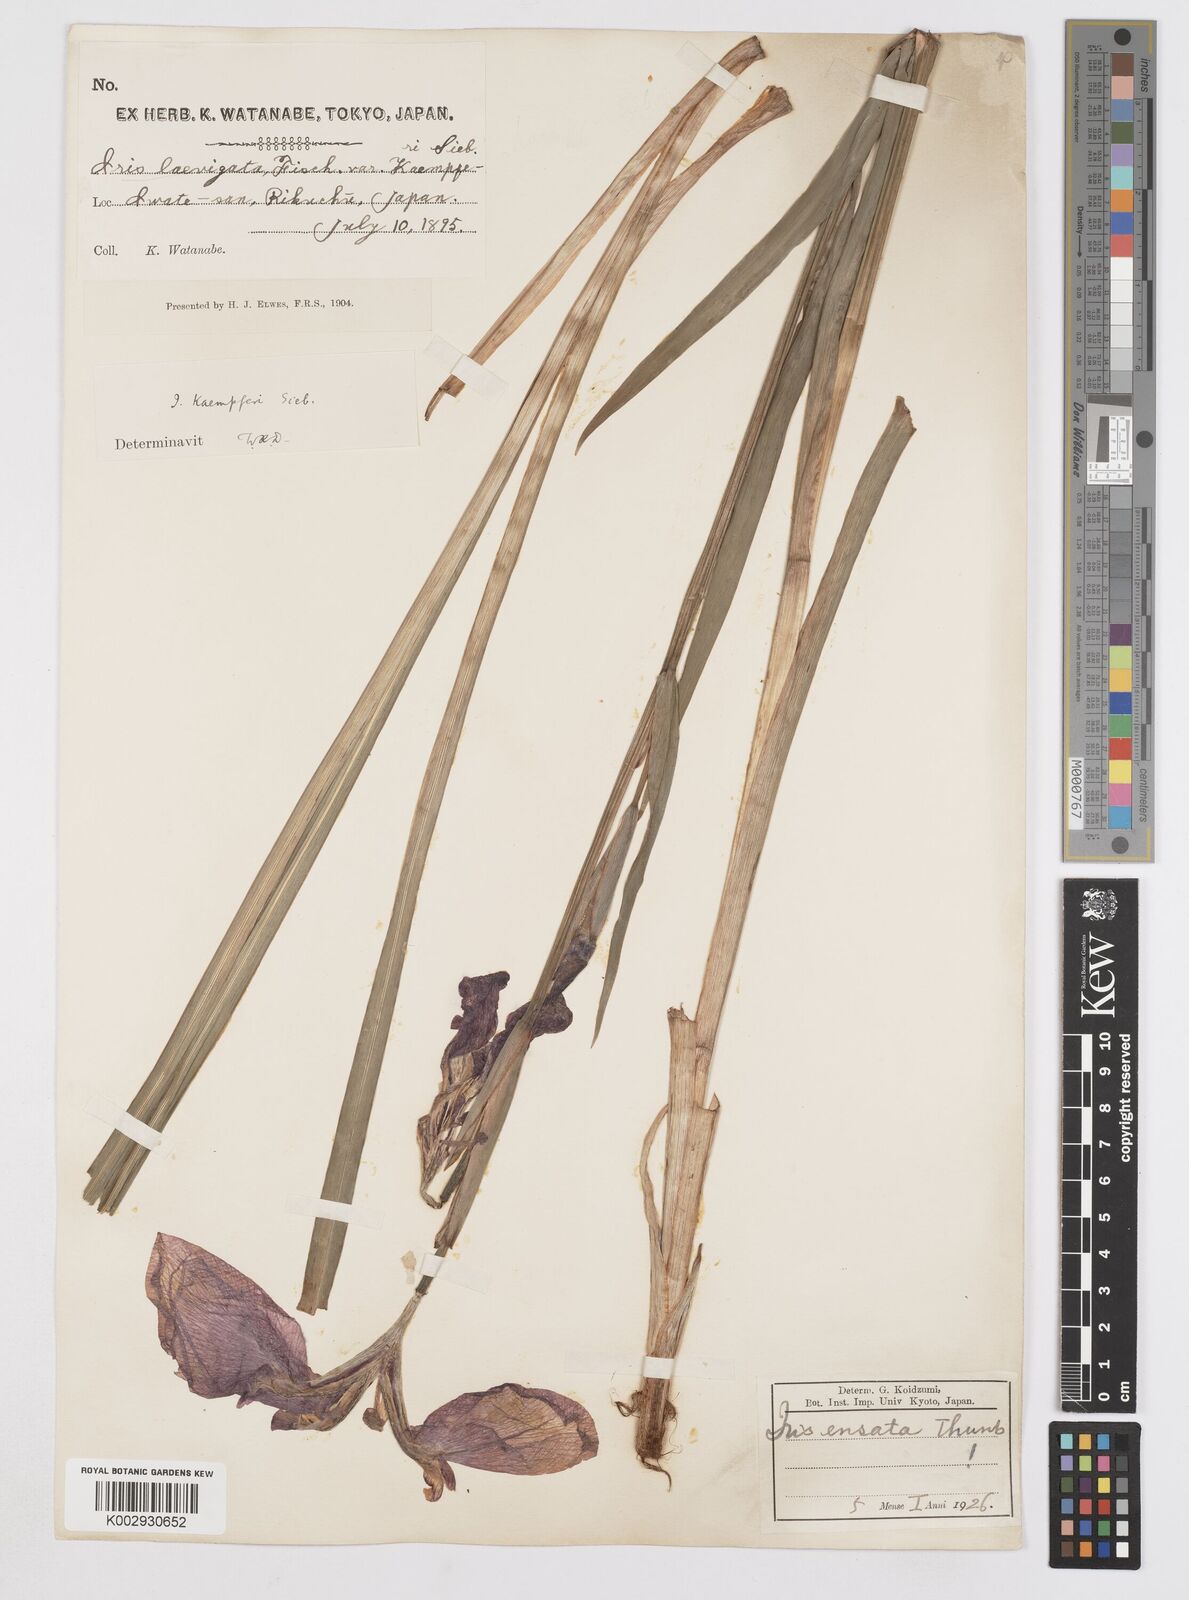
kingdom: Plantae
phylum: Tracheophyta
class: Liliopsida
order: Asparagales
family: Iridaceae
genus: Iris
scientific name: Iris ensata
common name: Beaked iris
